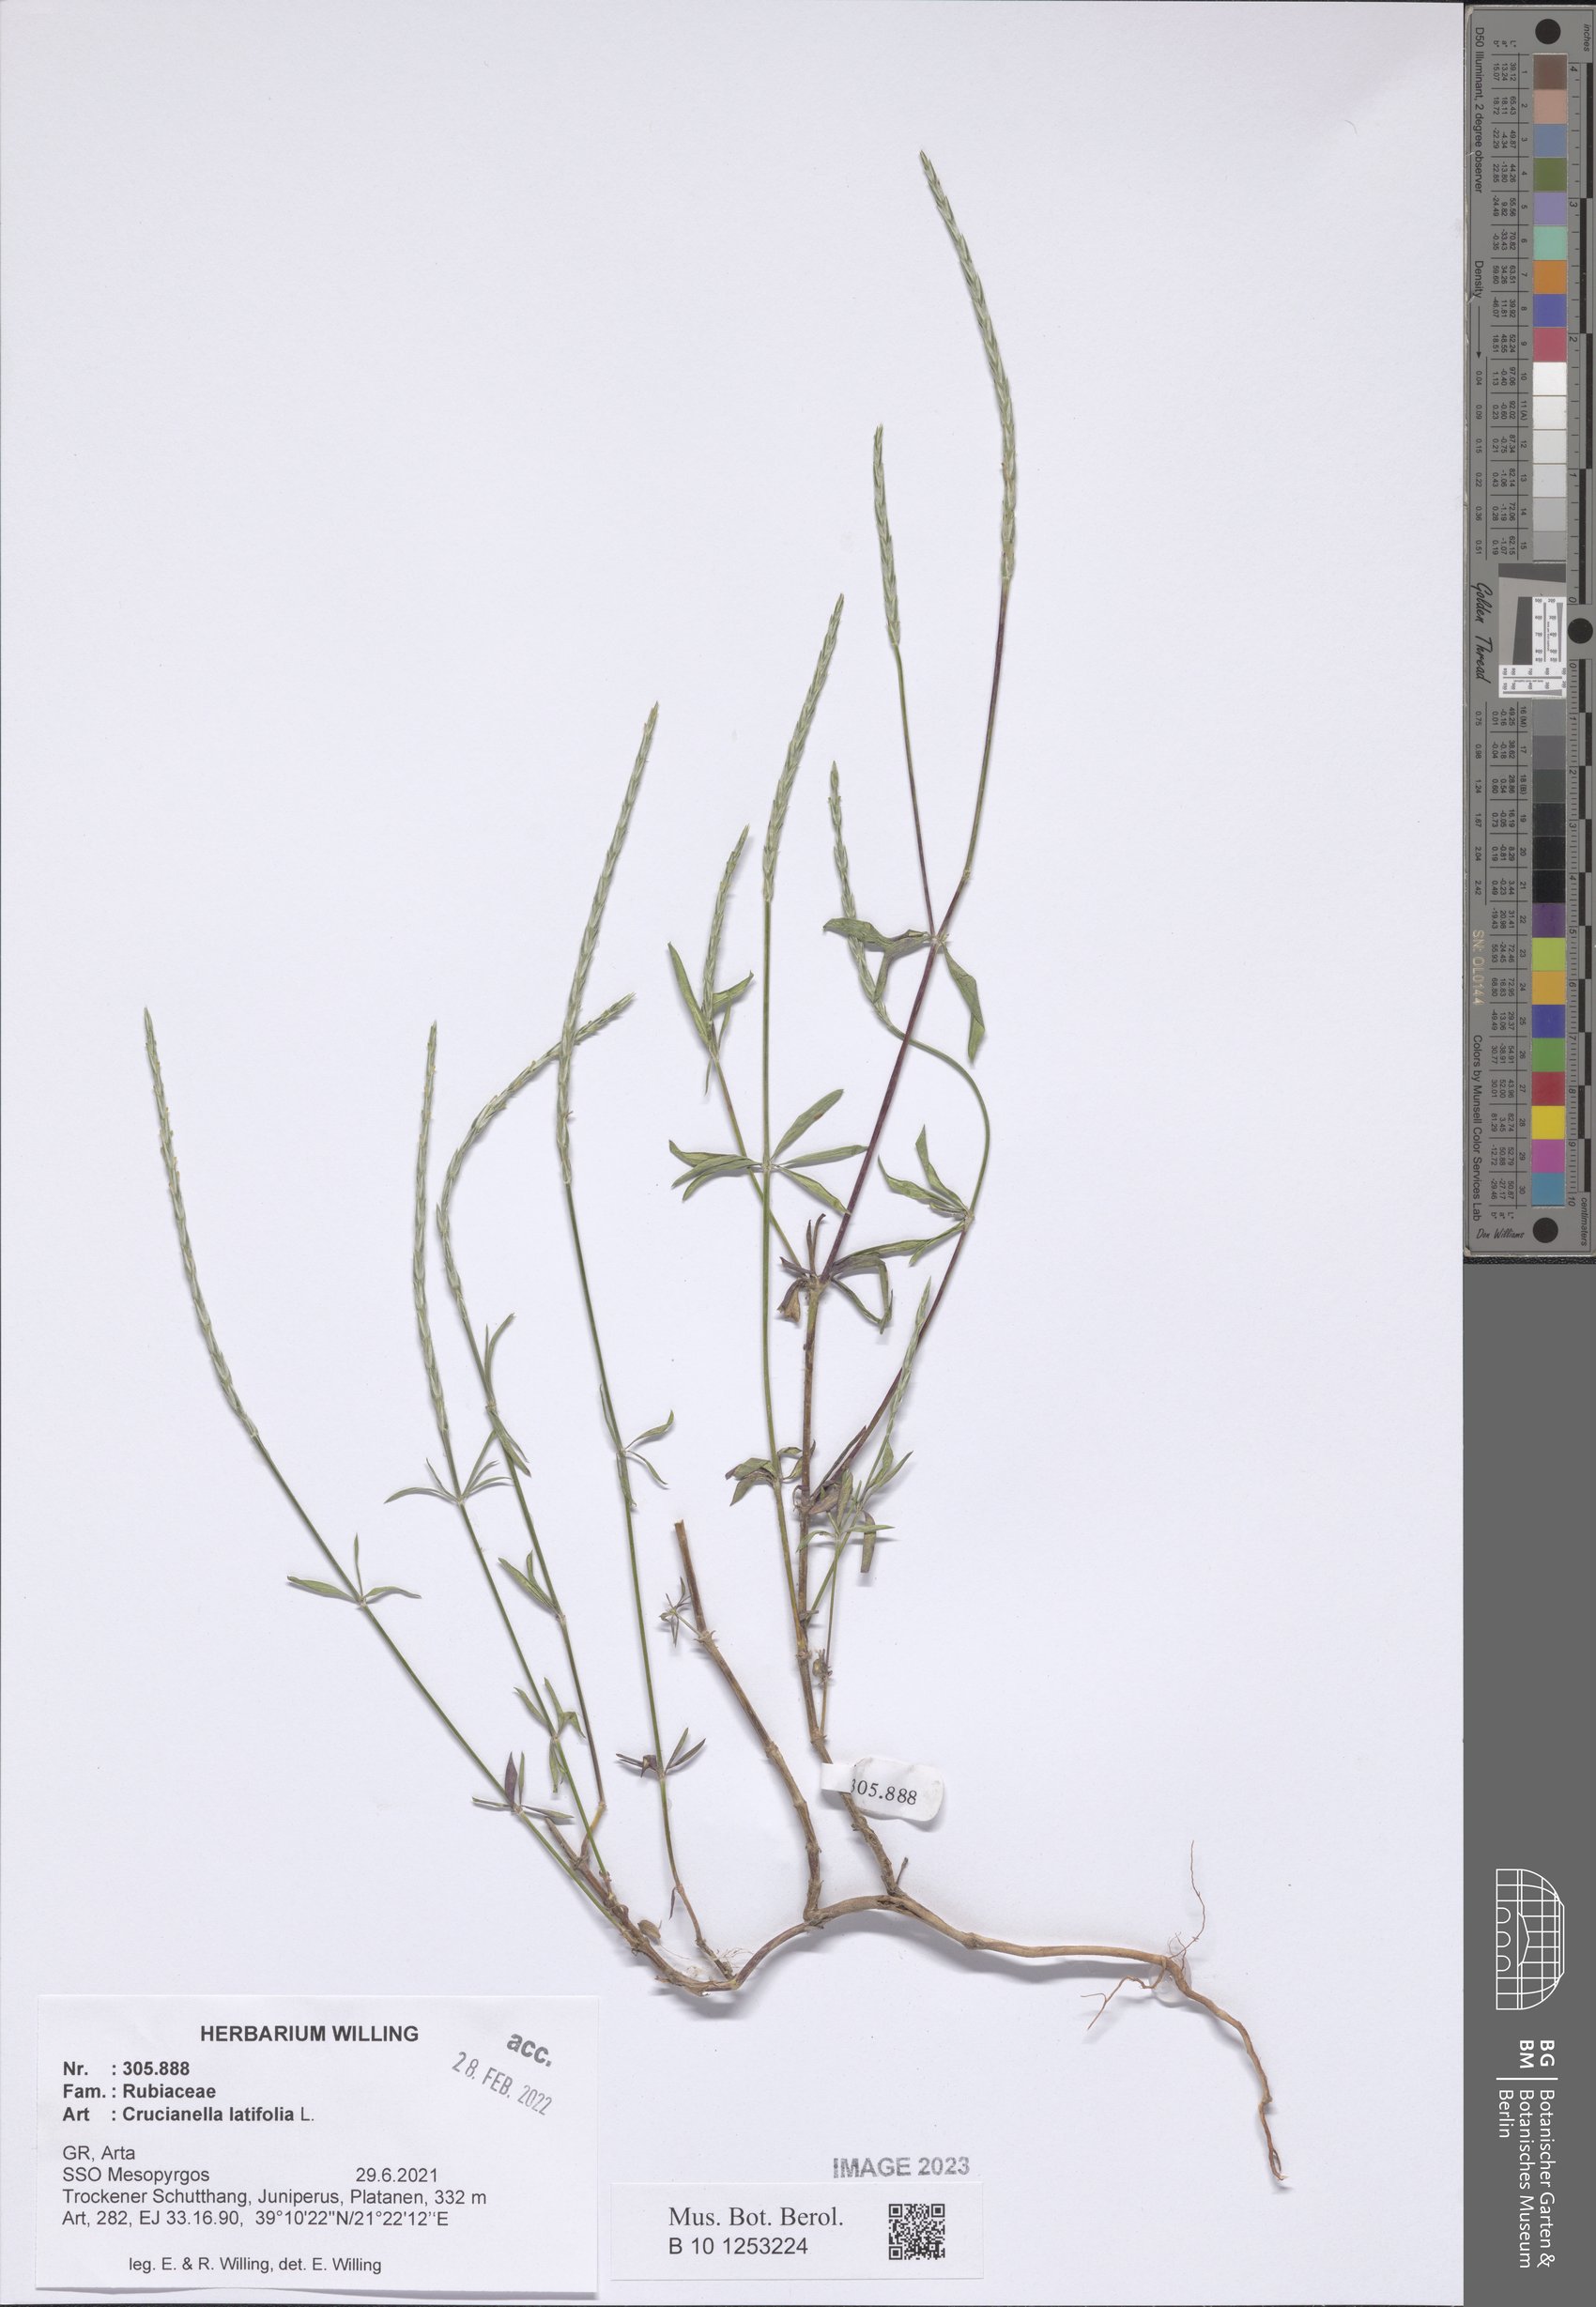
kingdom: Plantae
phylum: Tracheophyta
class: Magnoliopsida
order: Gentianales
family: Rubiaceae
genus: Crucianella
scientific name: Crucianella latifolia
